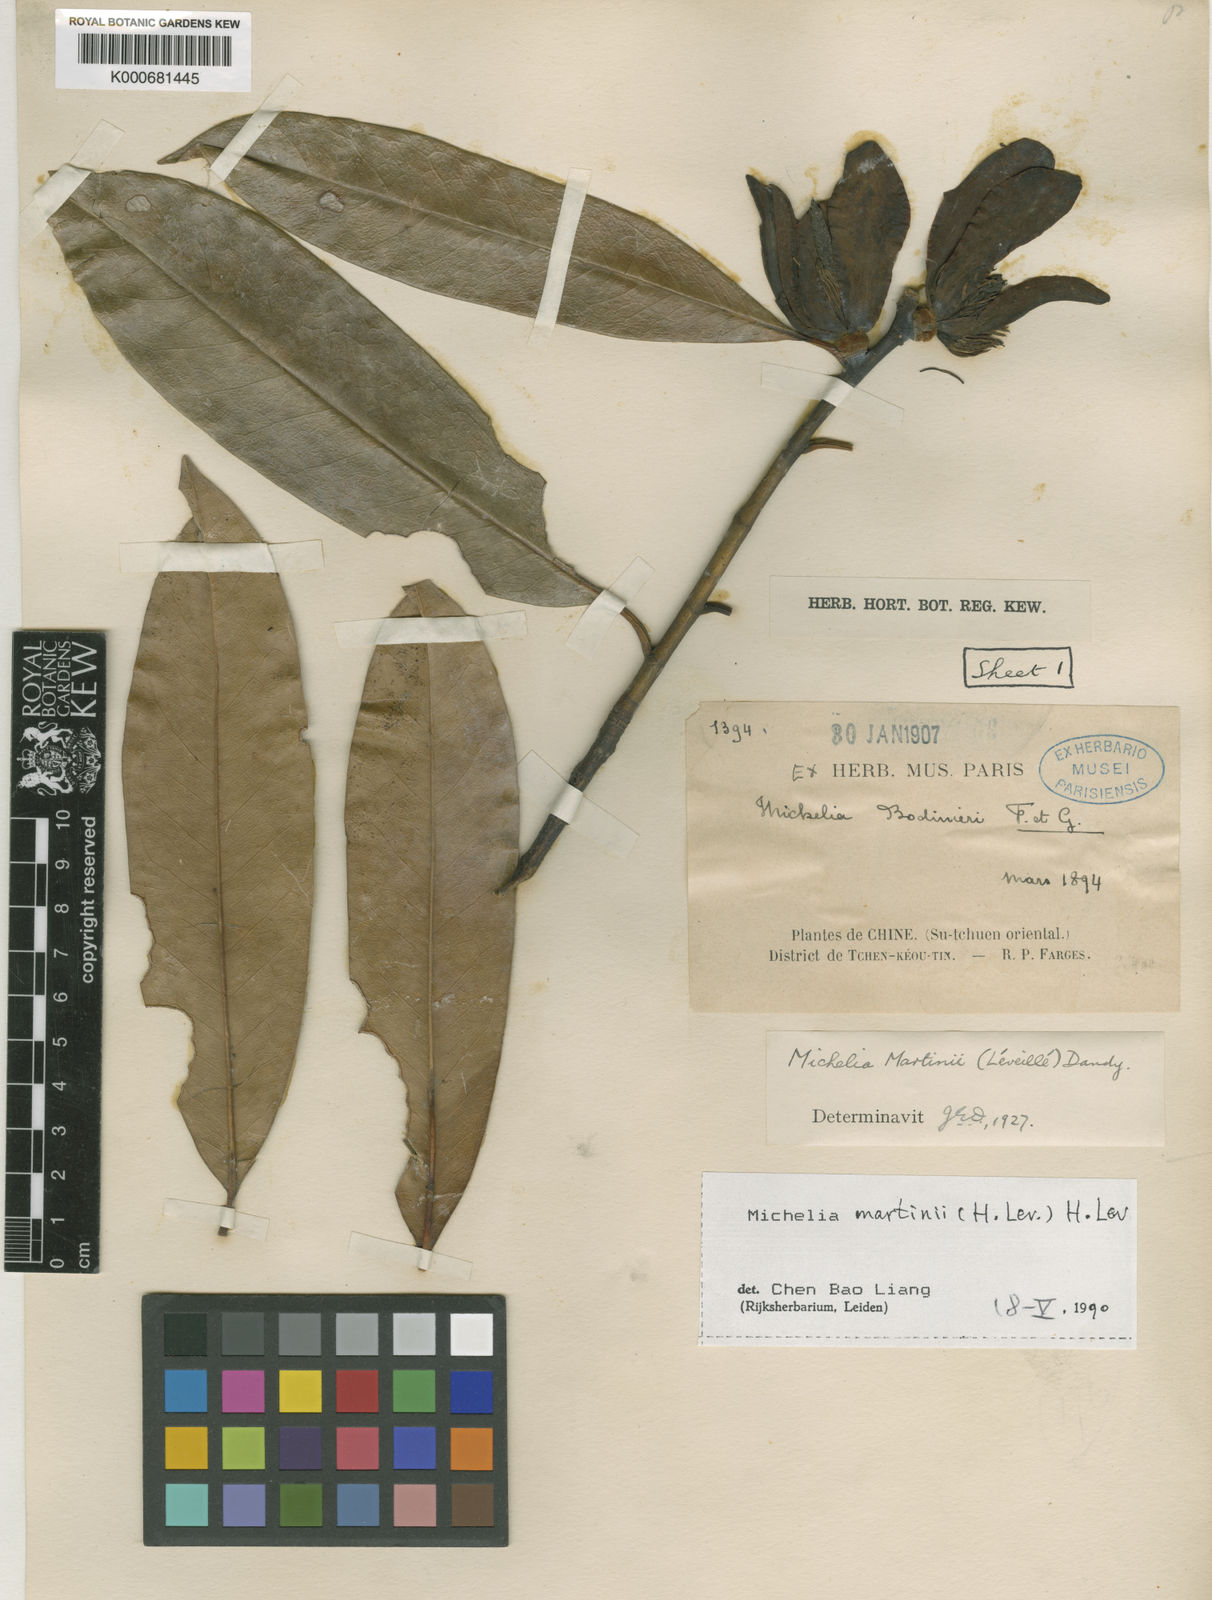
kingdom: Plantae
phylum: Tracheophyta
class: Magnoliopsida
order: Magnoliales
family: Magnoliaceae
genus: Magnolia
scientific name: Magnolia
